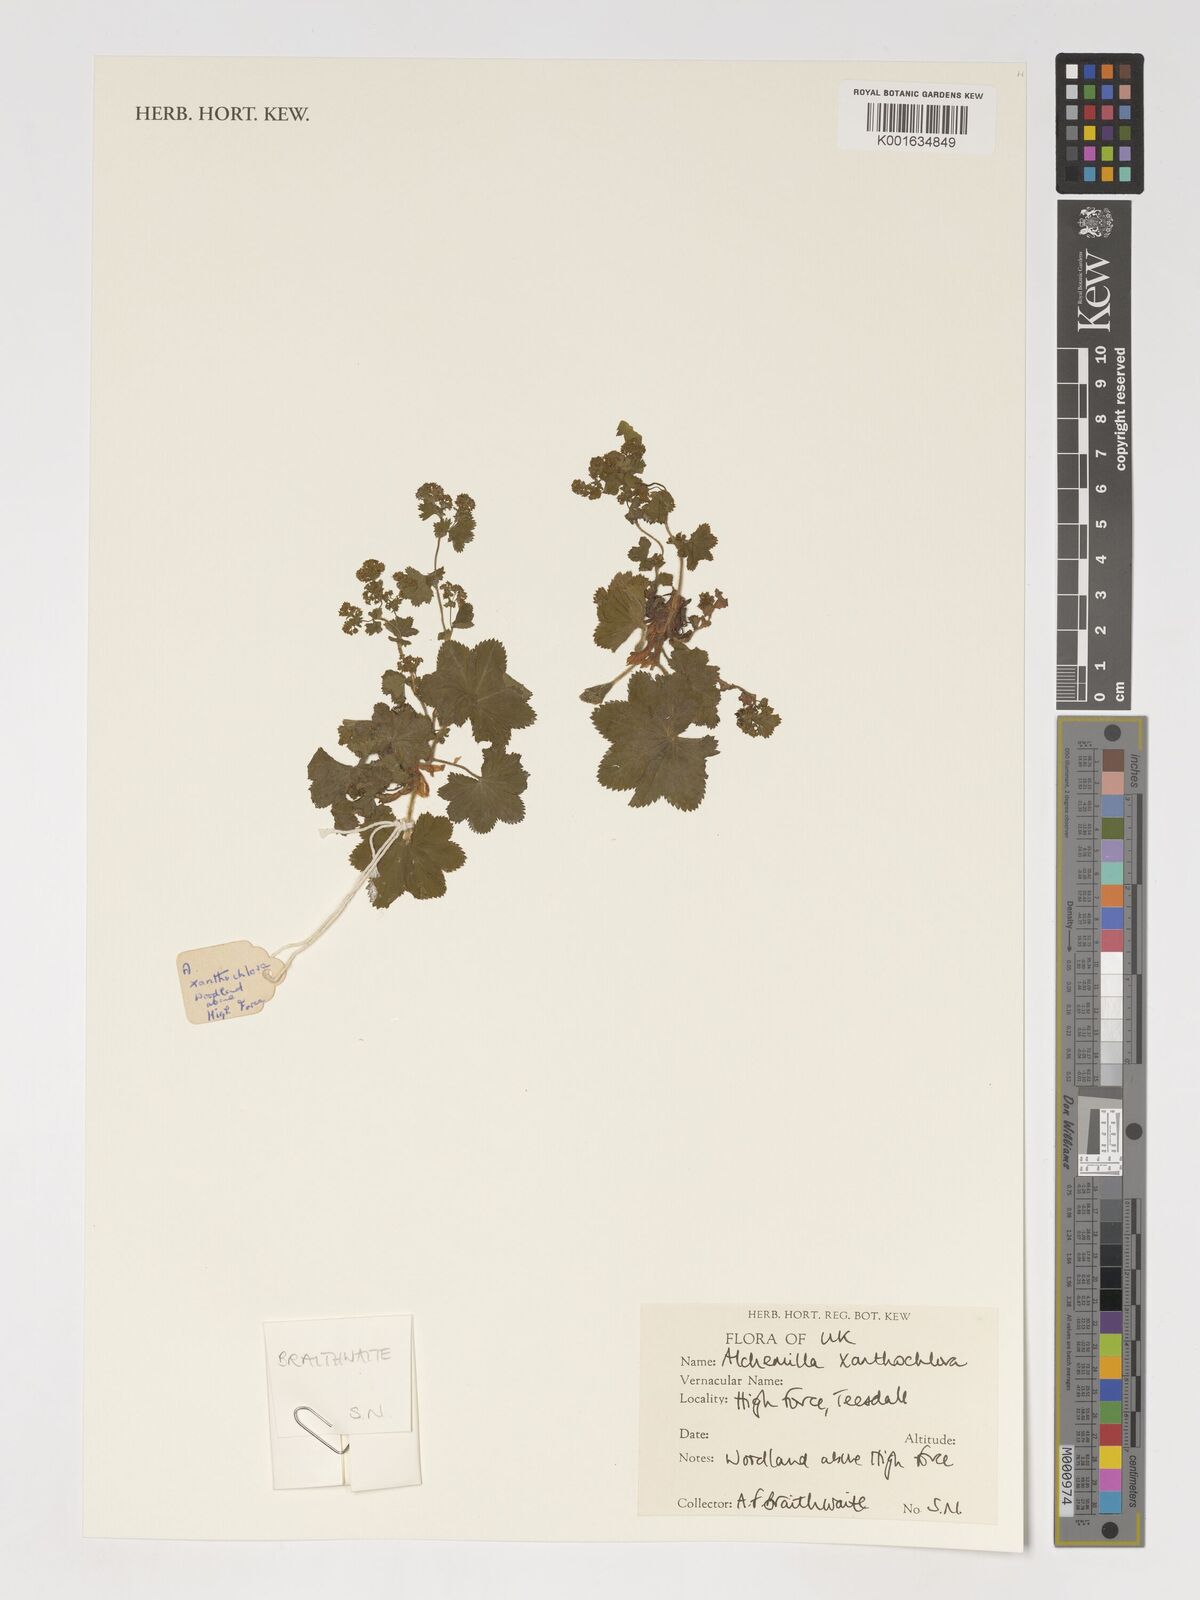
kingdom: Plantae
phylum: Tracheophyta
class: Magnoliopsida
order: Rosales
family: Rosaceae
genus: Alchemilla
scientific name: Alchemilla xanthochlora
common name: Intermediate lady's-mantle
